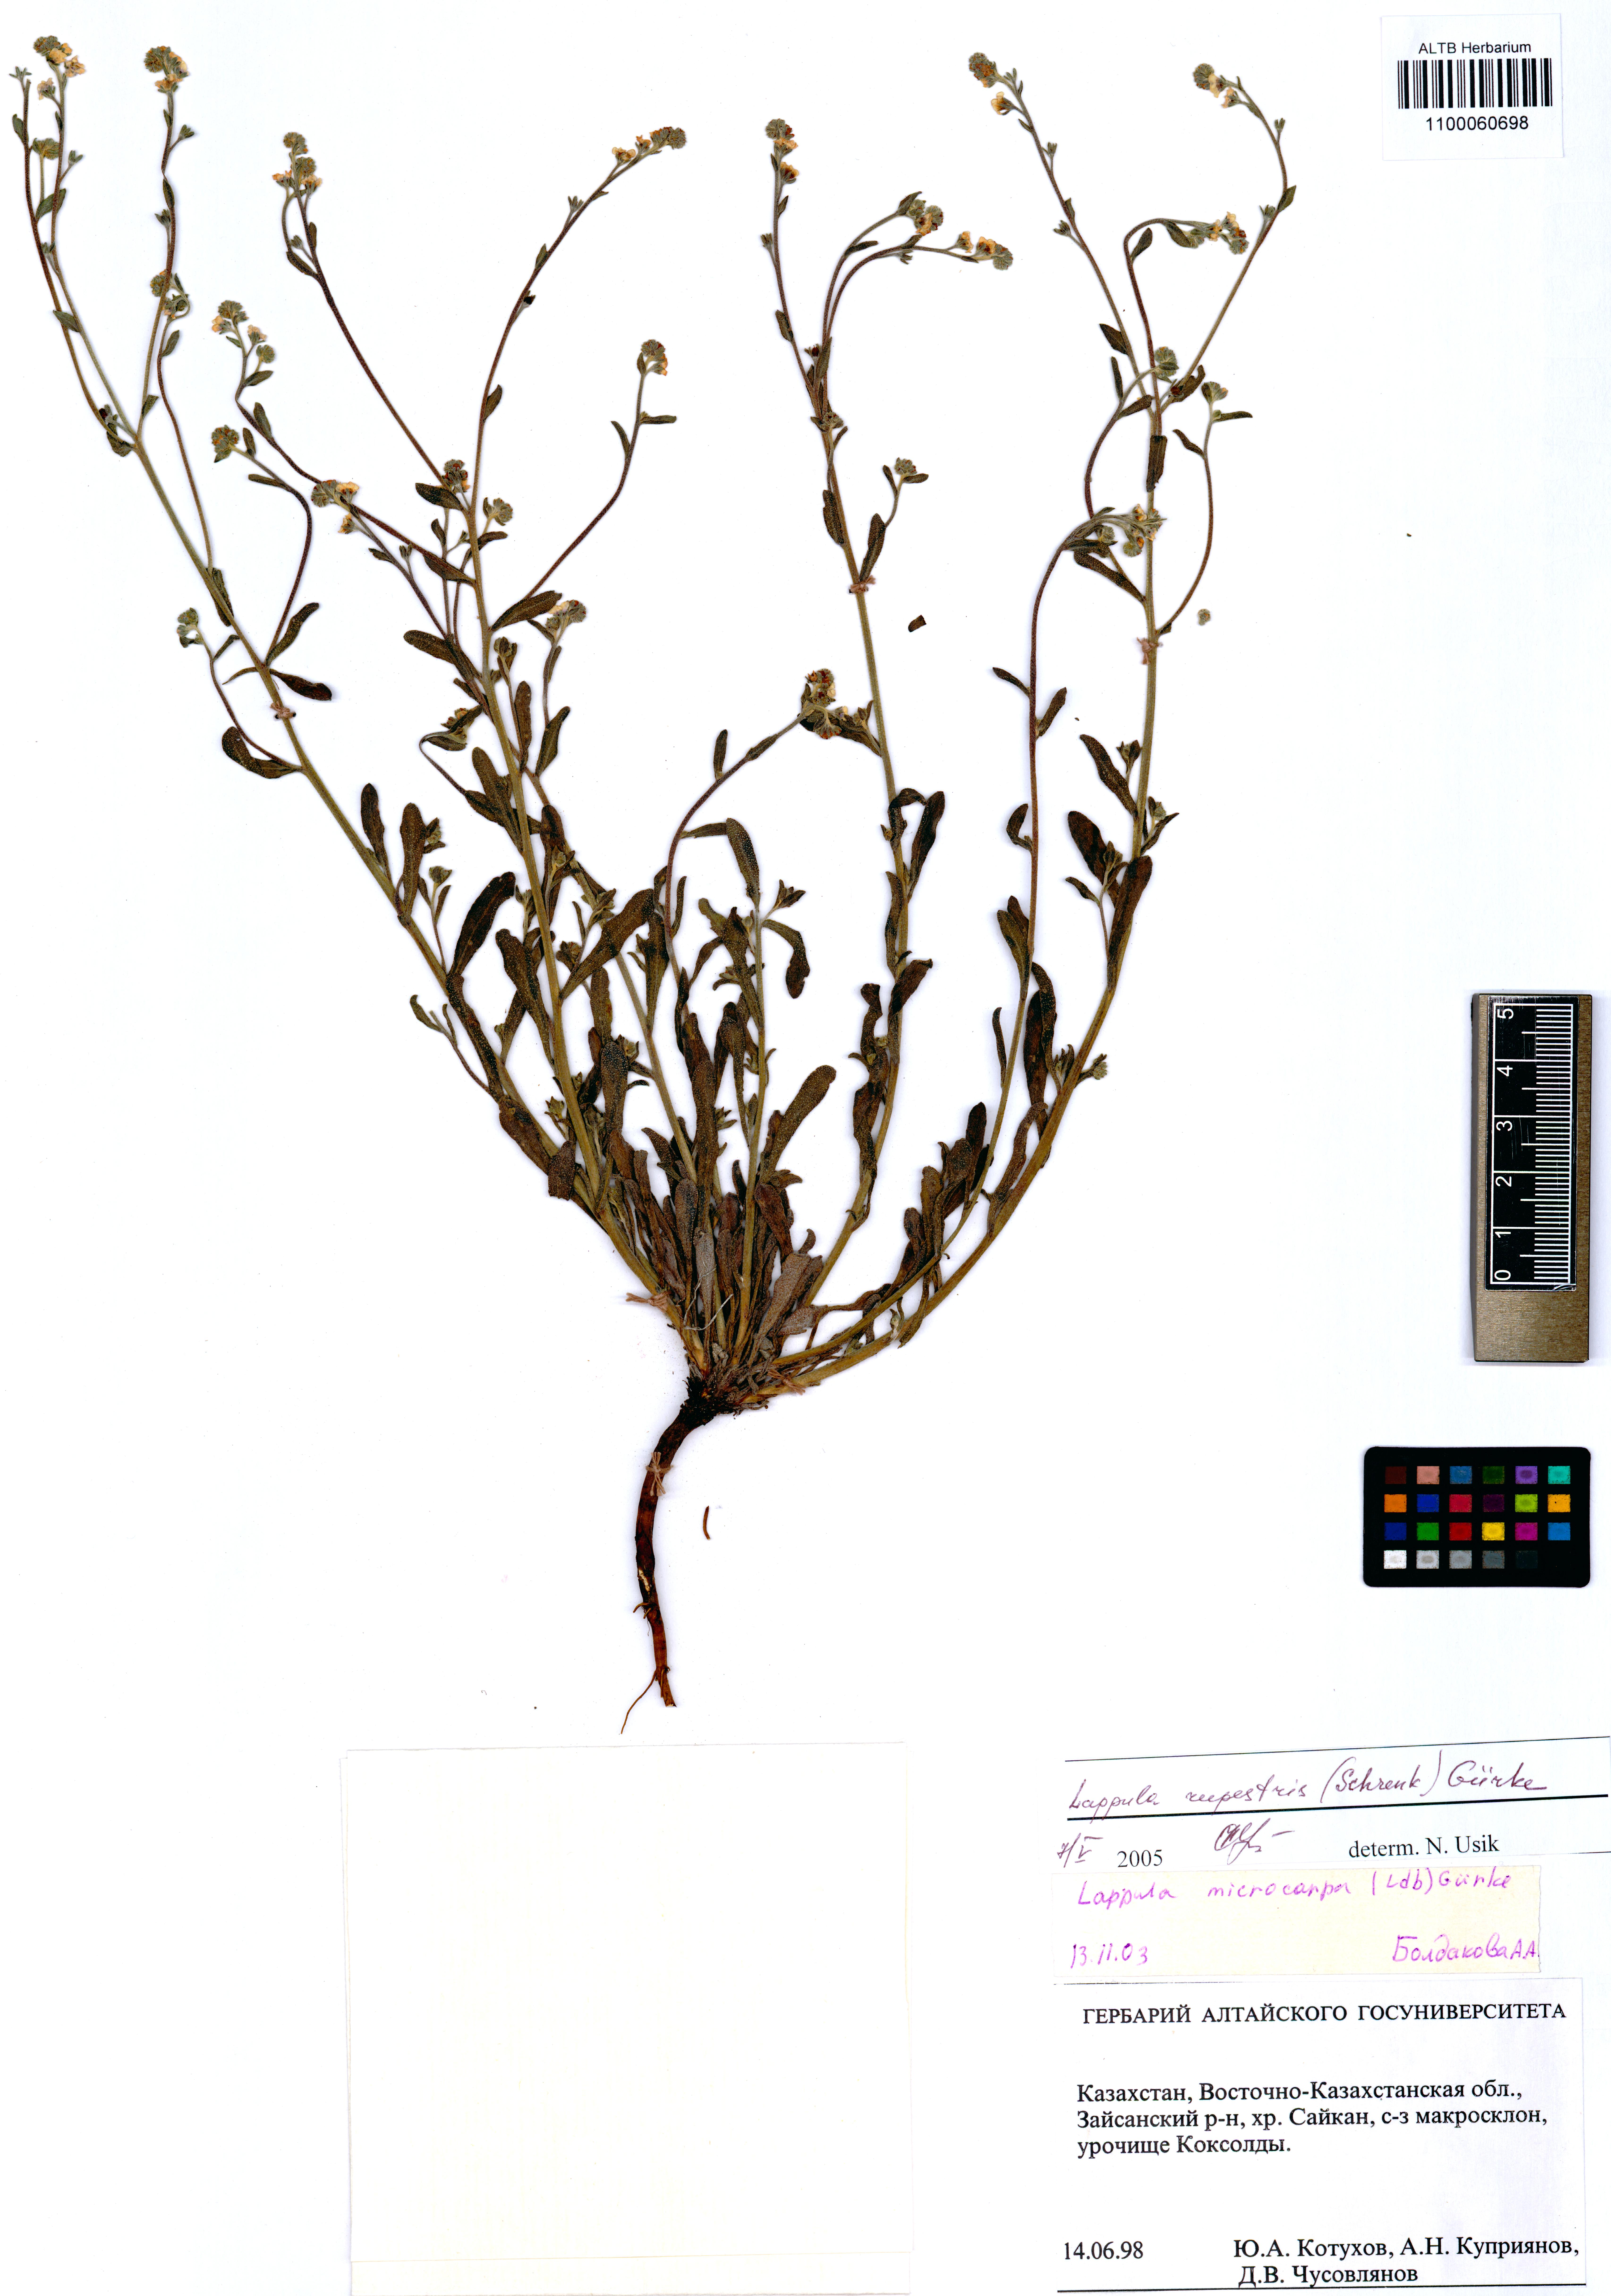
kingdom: Plantae
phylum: Tracheophyta
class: Magnoliopsida
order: Boraginales
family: Boraginaceae
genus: Lappula
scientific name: Lappula rupestris
